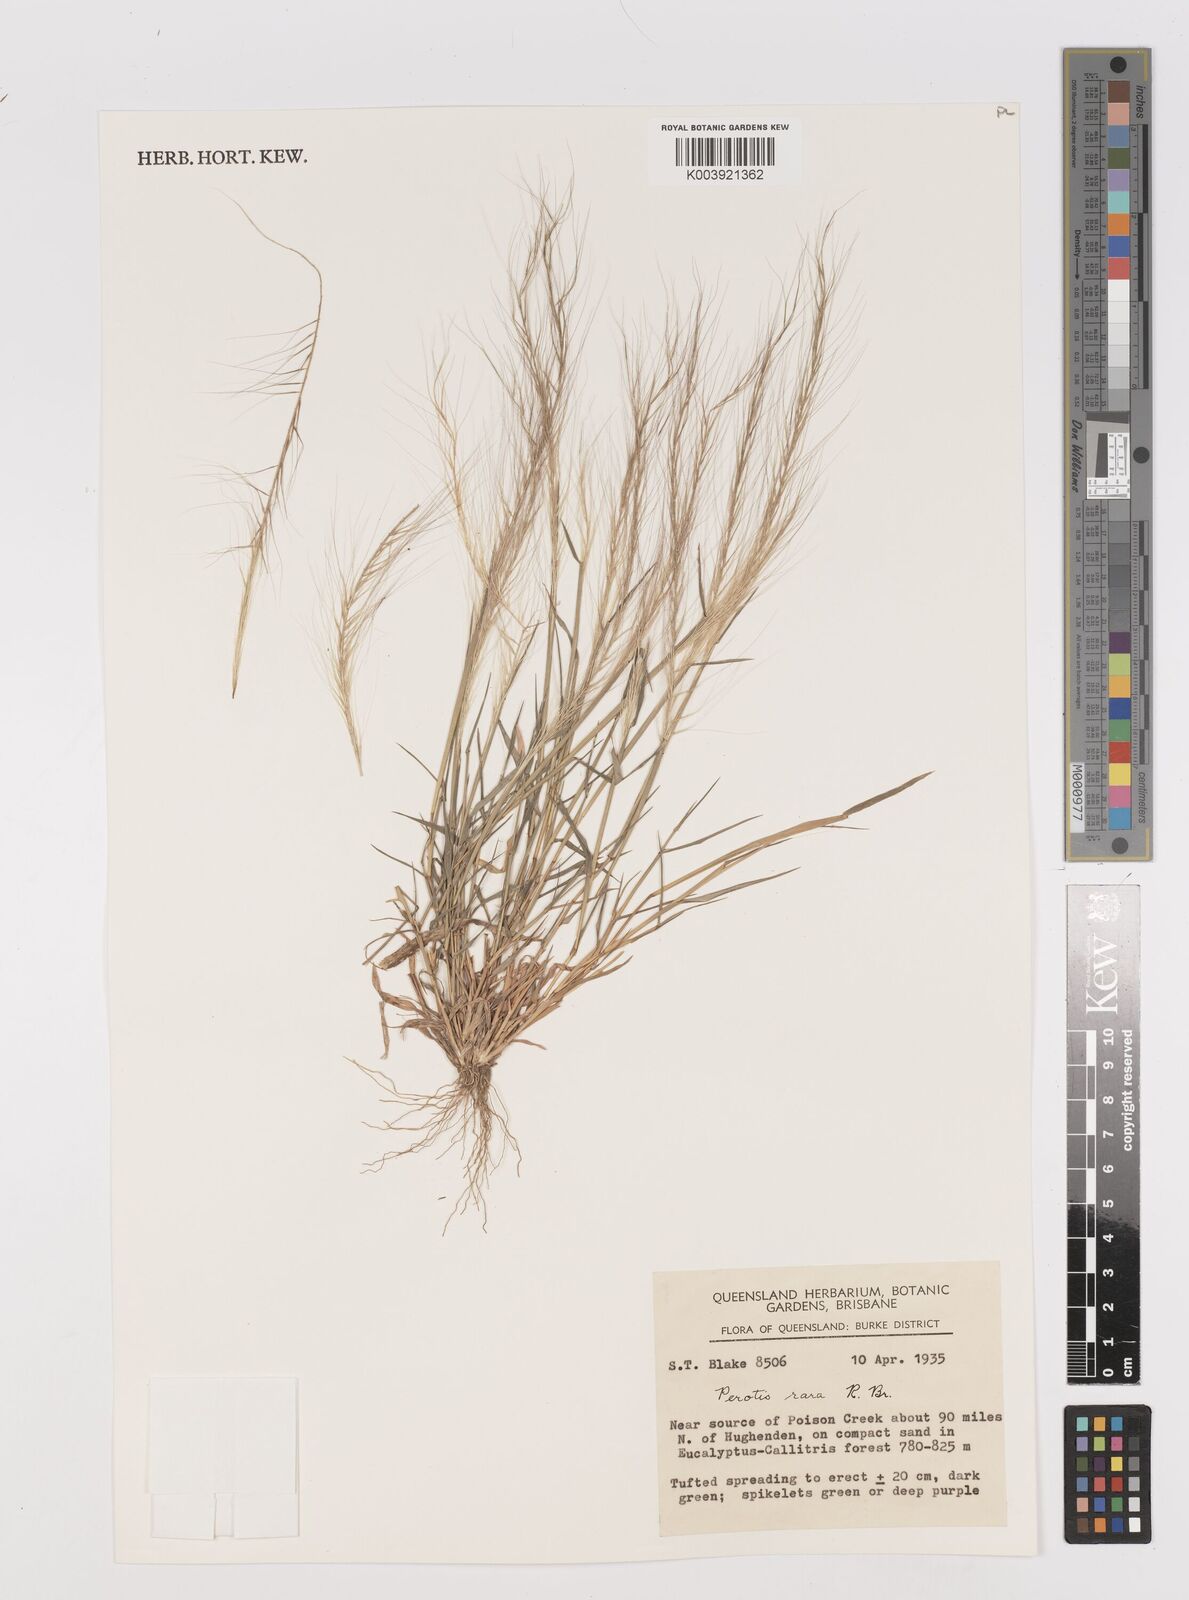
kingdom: Plantae
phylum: Tracheophyta
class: Liliopsida
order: Poales
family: Poaceae
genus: Perotis
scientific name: Perotis rara
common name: Comet grass
